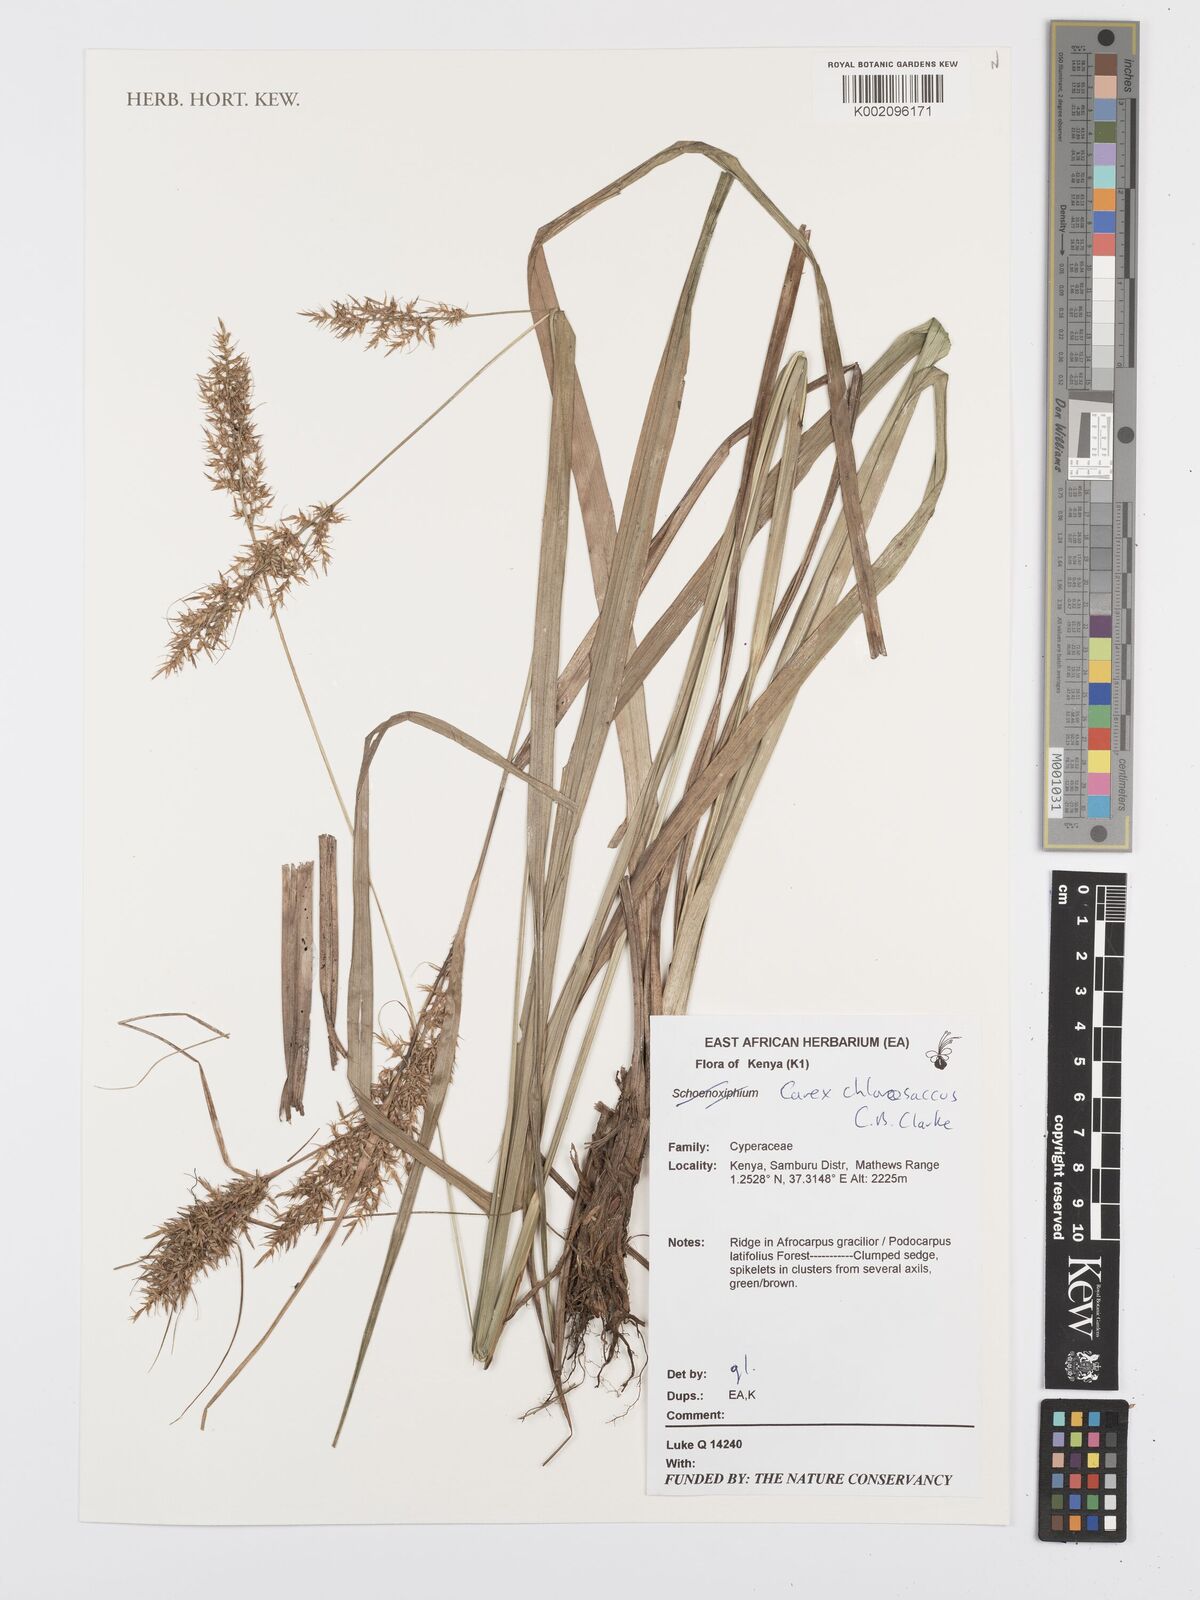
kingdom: Plantae
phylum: Tracheophyta
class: Liliopsida
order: Poales
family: Cyperaceae
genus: Carex
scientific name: Carex chlorosaccus
